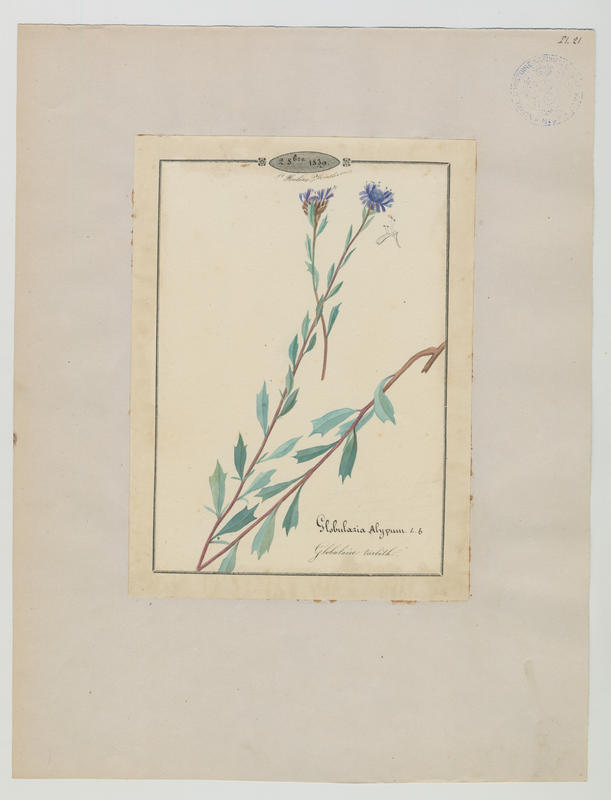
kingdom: Plantae
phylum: Tracheophyta
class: Magnoliopsida
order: Lamiales
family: Plantaginaceae
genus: Globularia
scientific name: Globularia alypum
